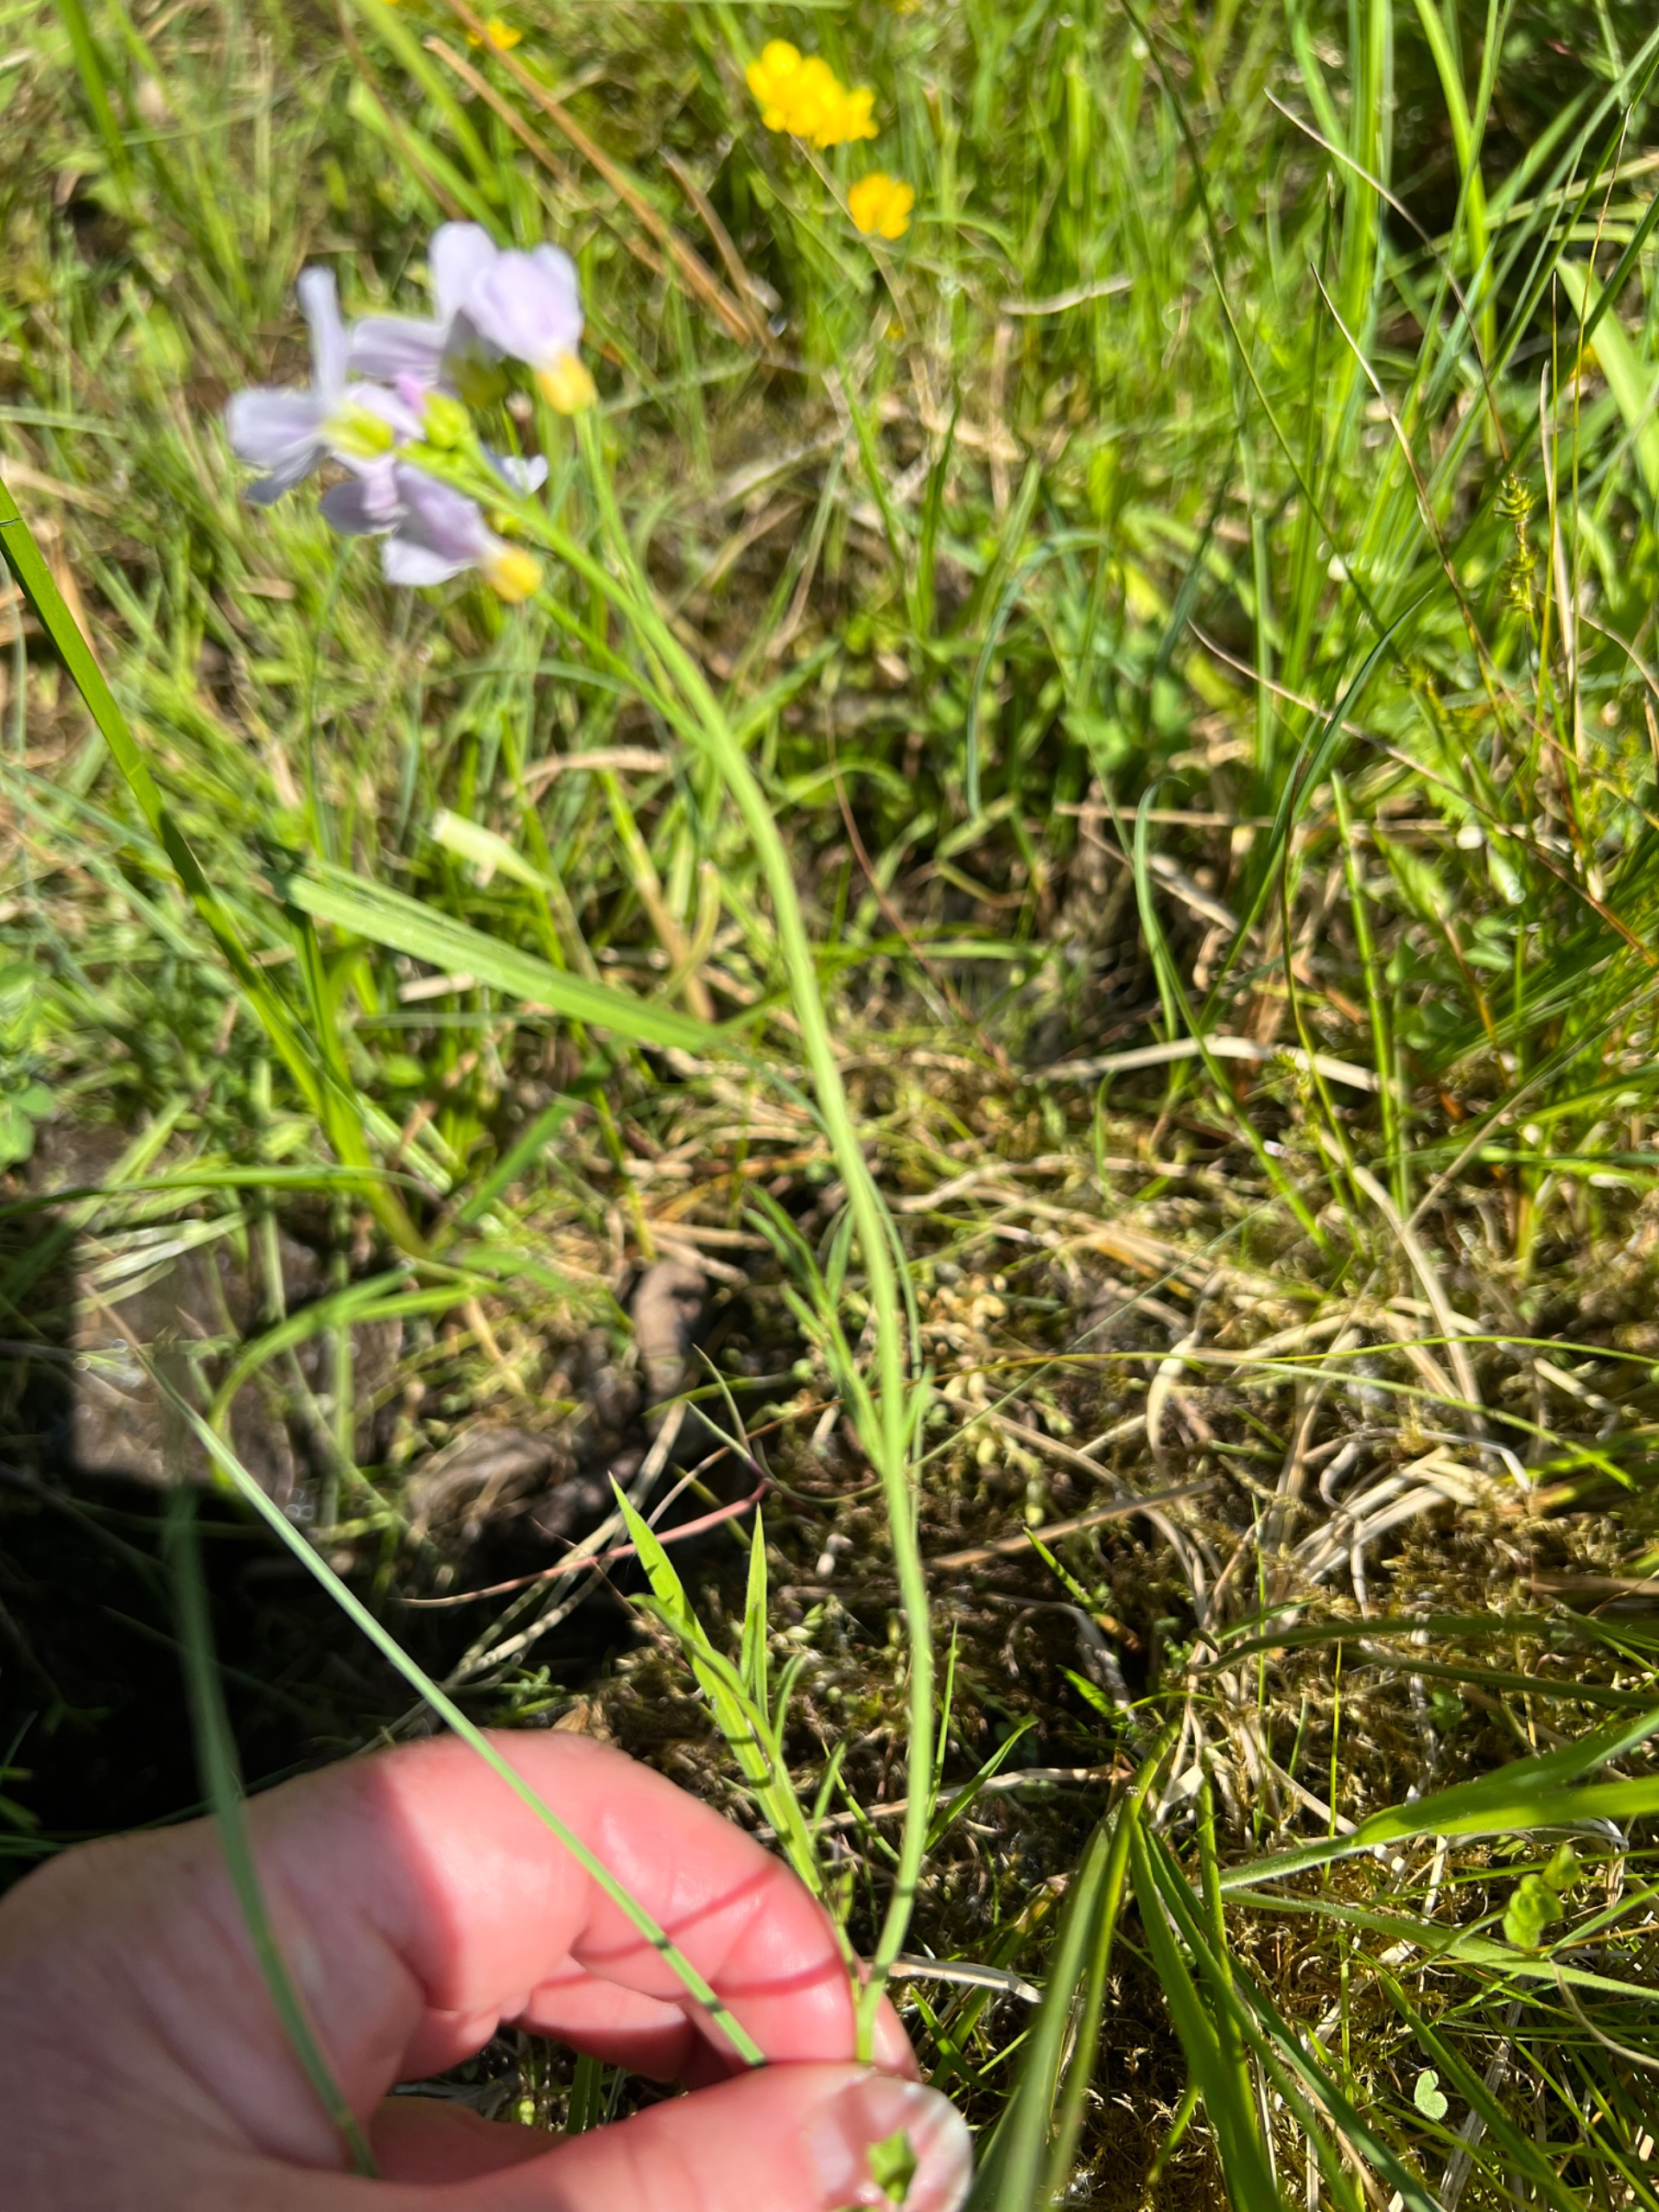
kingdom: Plantae
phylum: Tracheophyta
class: Magnoliopsida
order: Brassicales
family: Brassicaceae
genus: Cardamine
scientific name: Cardamine pratensis
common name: Engkarse
